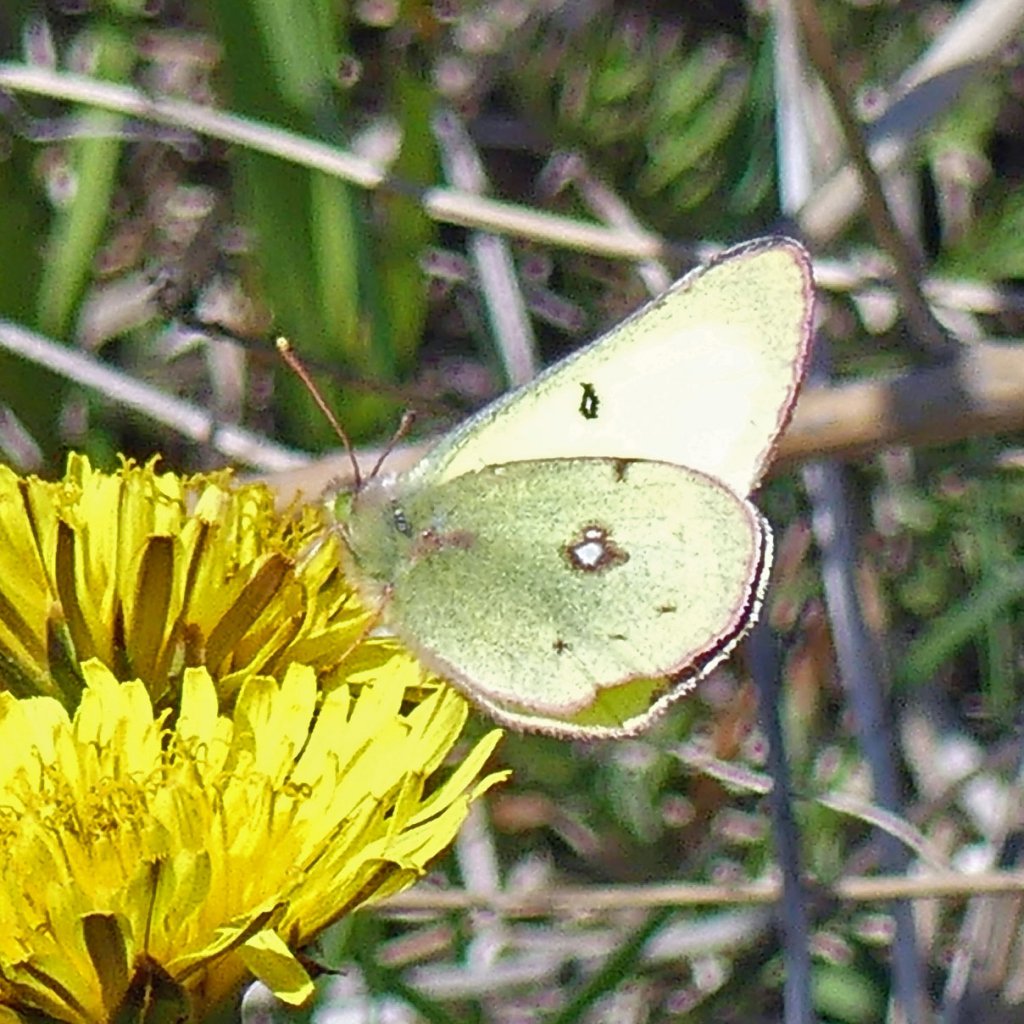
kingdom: Animalia
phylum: Arthropoda
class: Insecta
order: Lepidoptera
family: Pieridae
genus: Colias
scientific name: Colias philodice
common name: Clouded Sulphur
